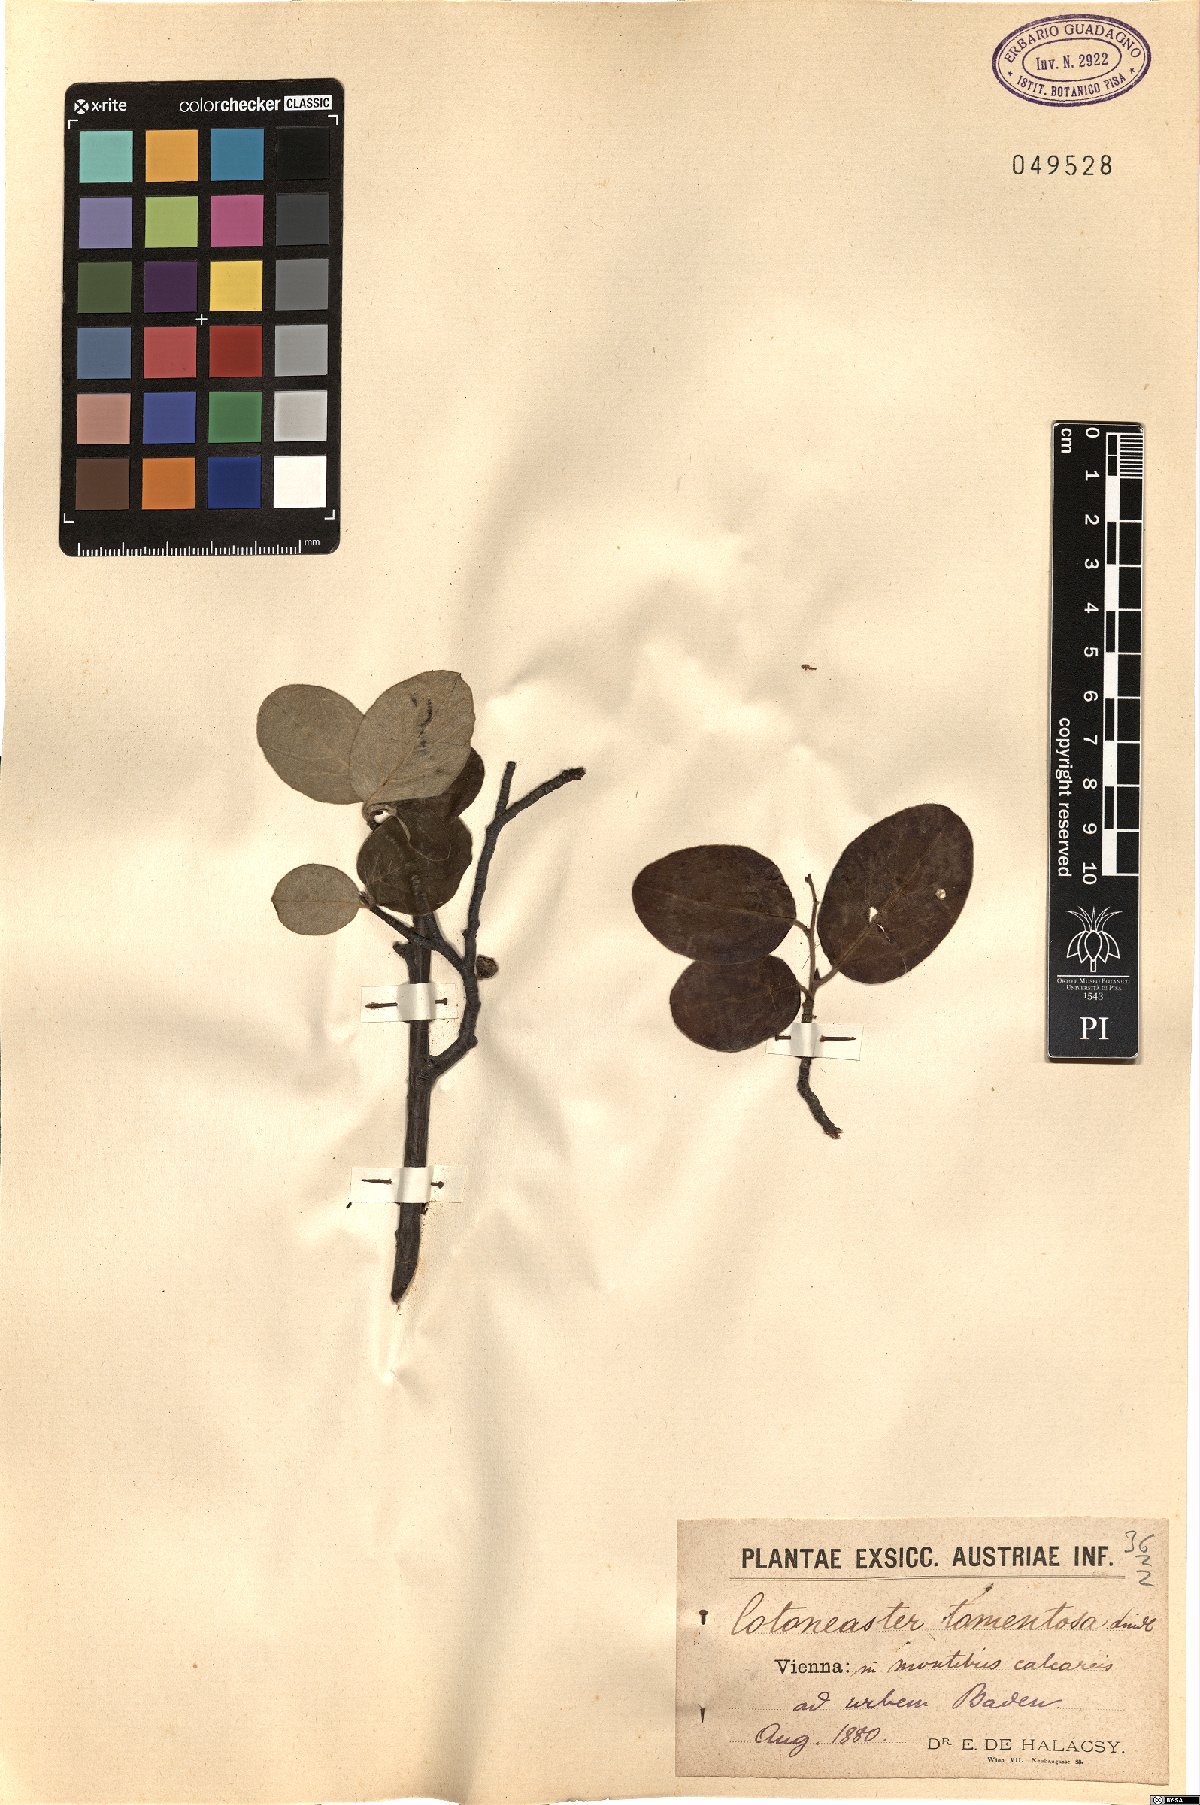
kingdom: Plantae
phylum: Tracheophyta
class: Magnoliopsida
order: Rosales
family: Rosaceae
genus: Cotoneaster
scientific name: Cotoneaster tomentosus
